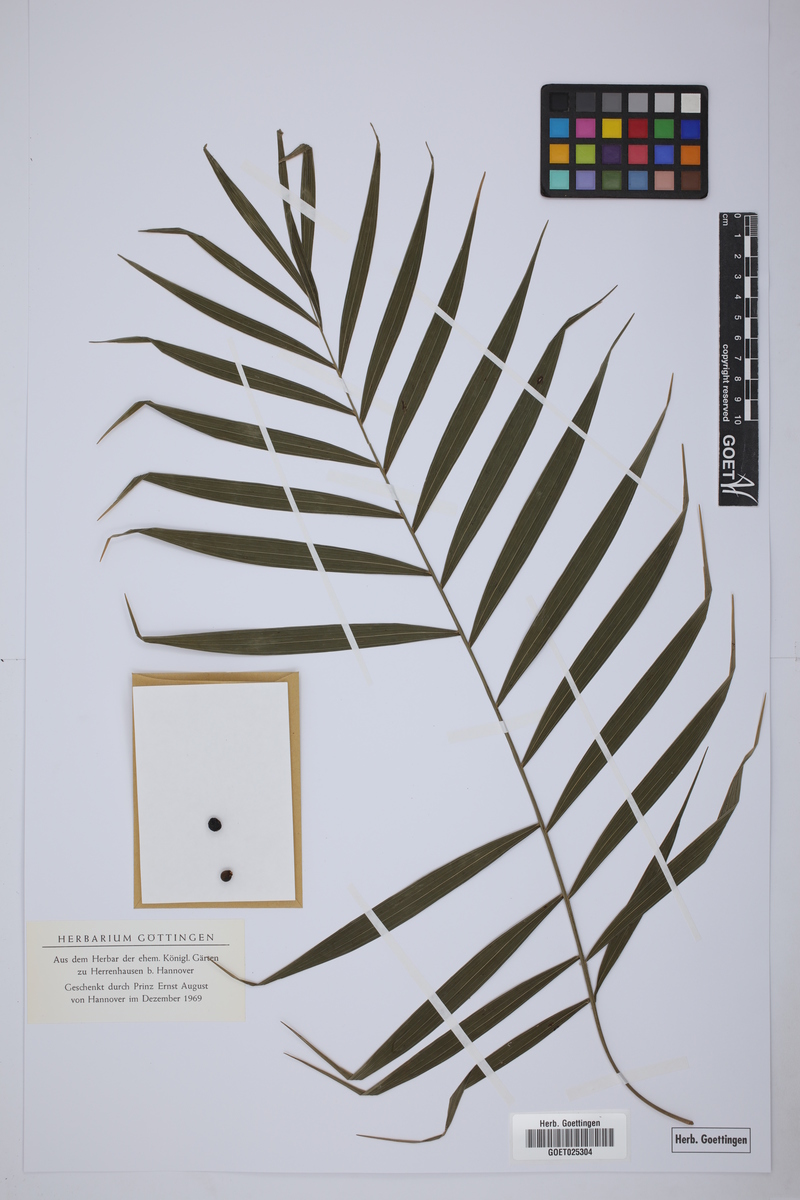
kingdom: Plantae
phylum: Tracheophyta
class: Liliopsida
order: Arecales
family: Arecaceae
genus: Chamaedorea
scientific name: Chamaedorea liebmannii
